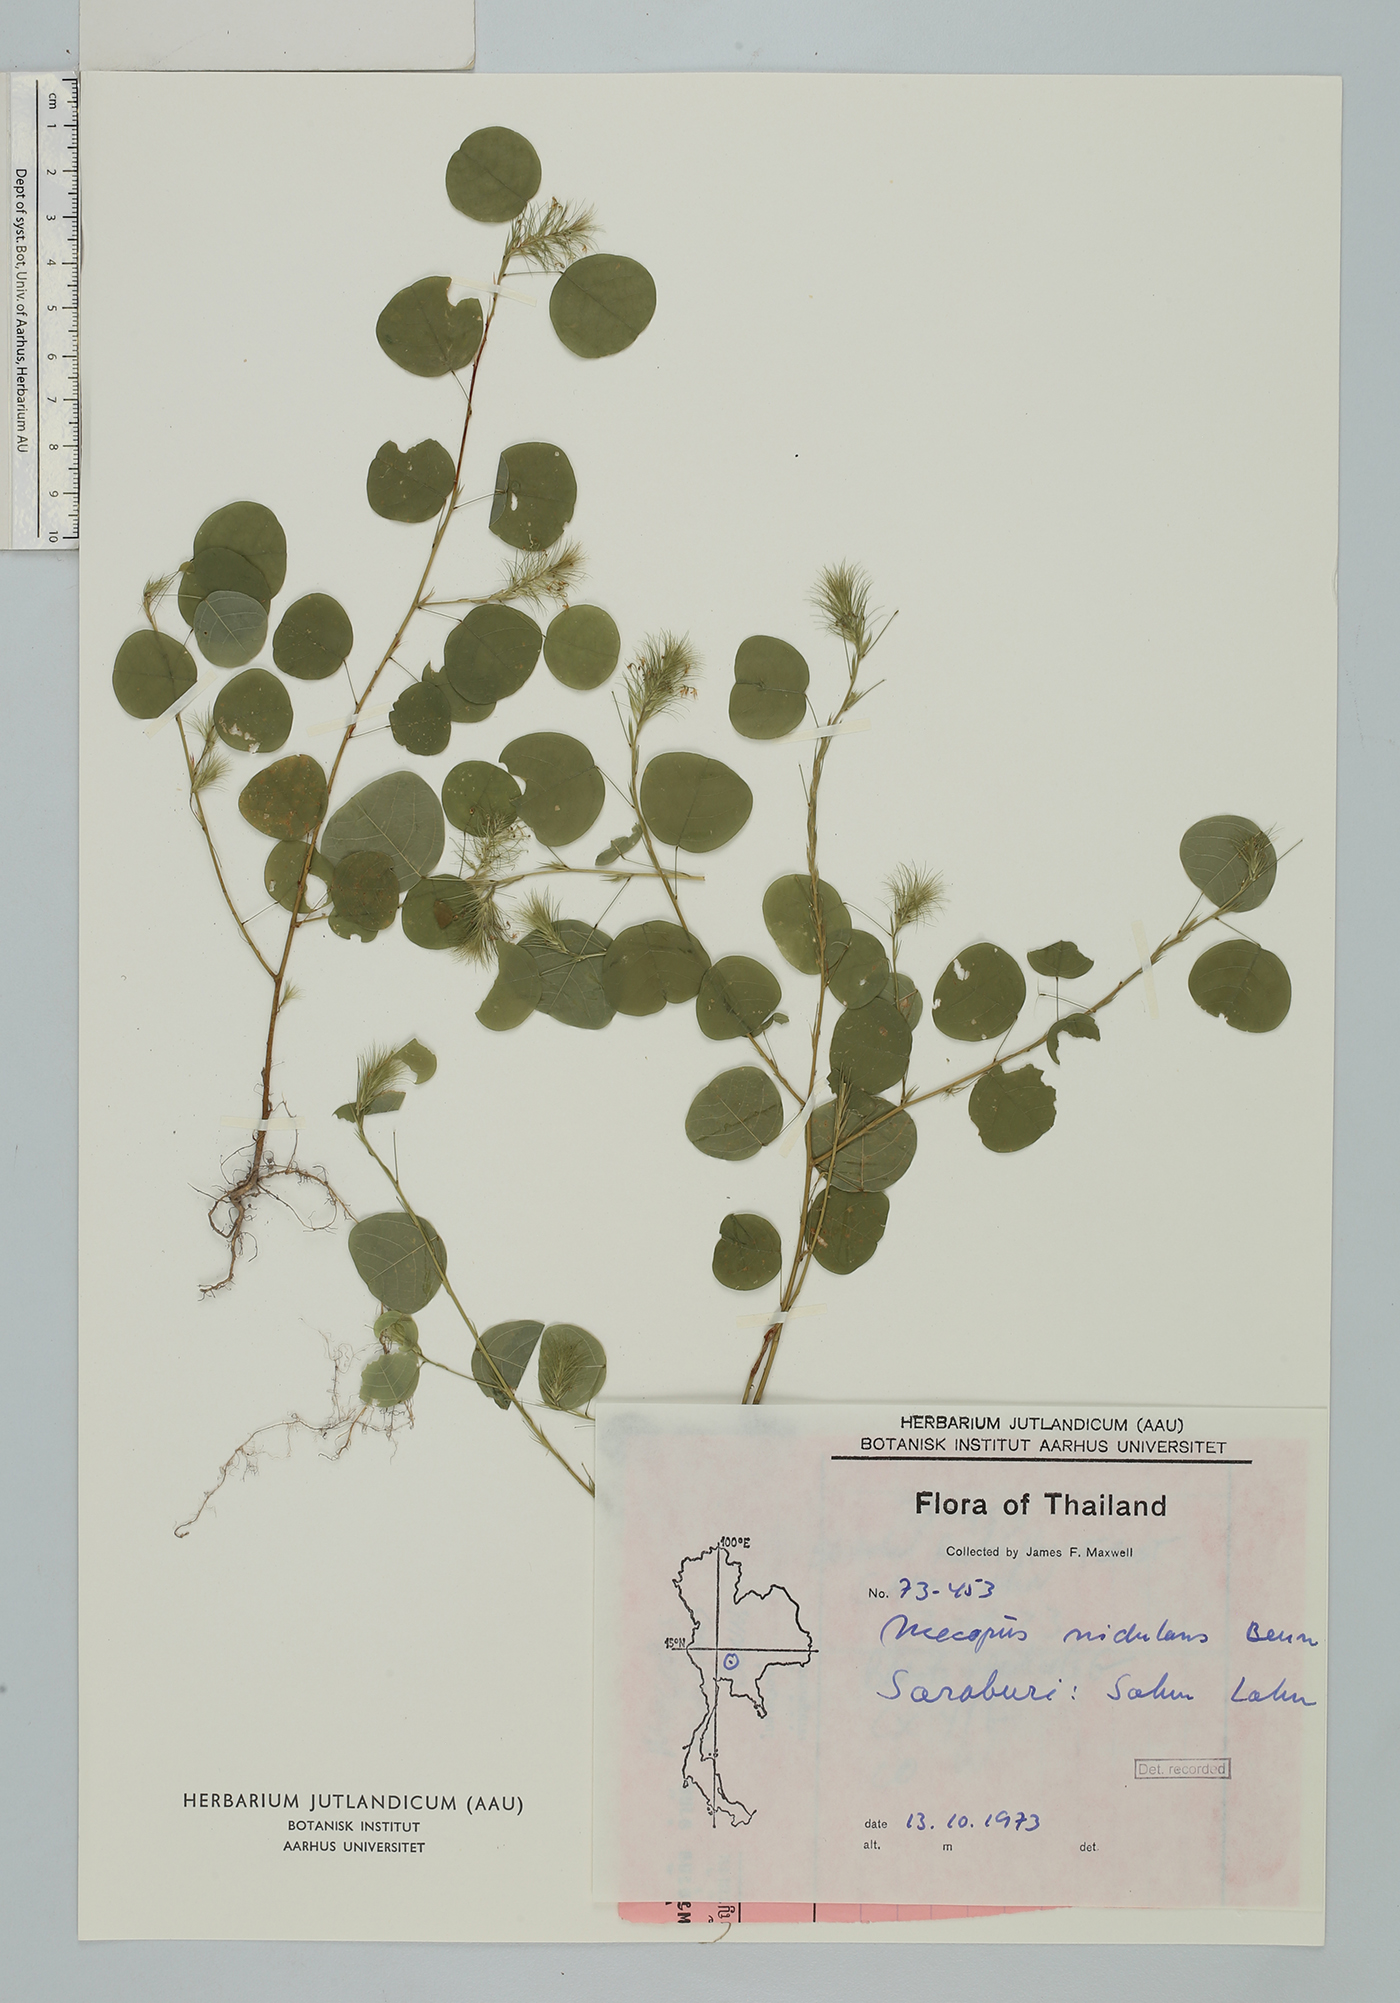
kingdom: Plantae
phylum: Tracheophyta
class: Magnoliopsida
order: Fabales
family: Fabaceae
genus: Mecopus
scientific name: Mecopus nidulans
